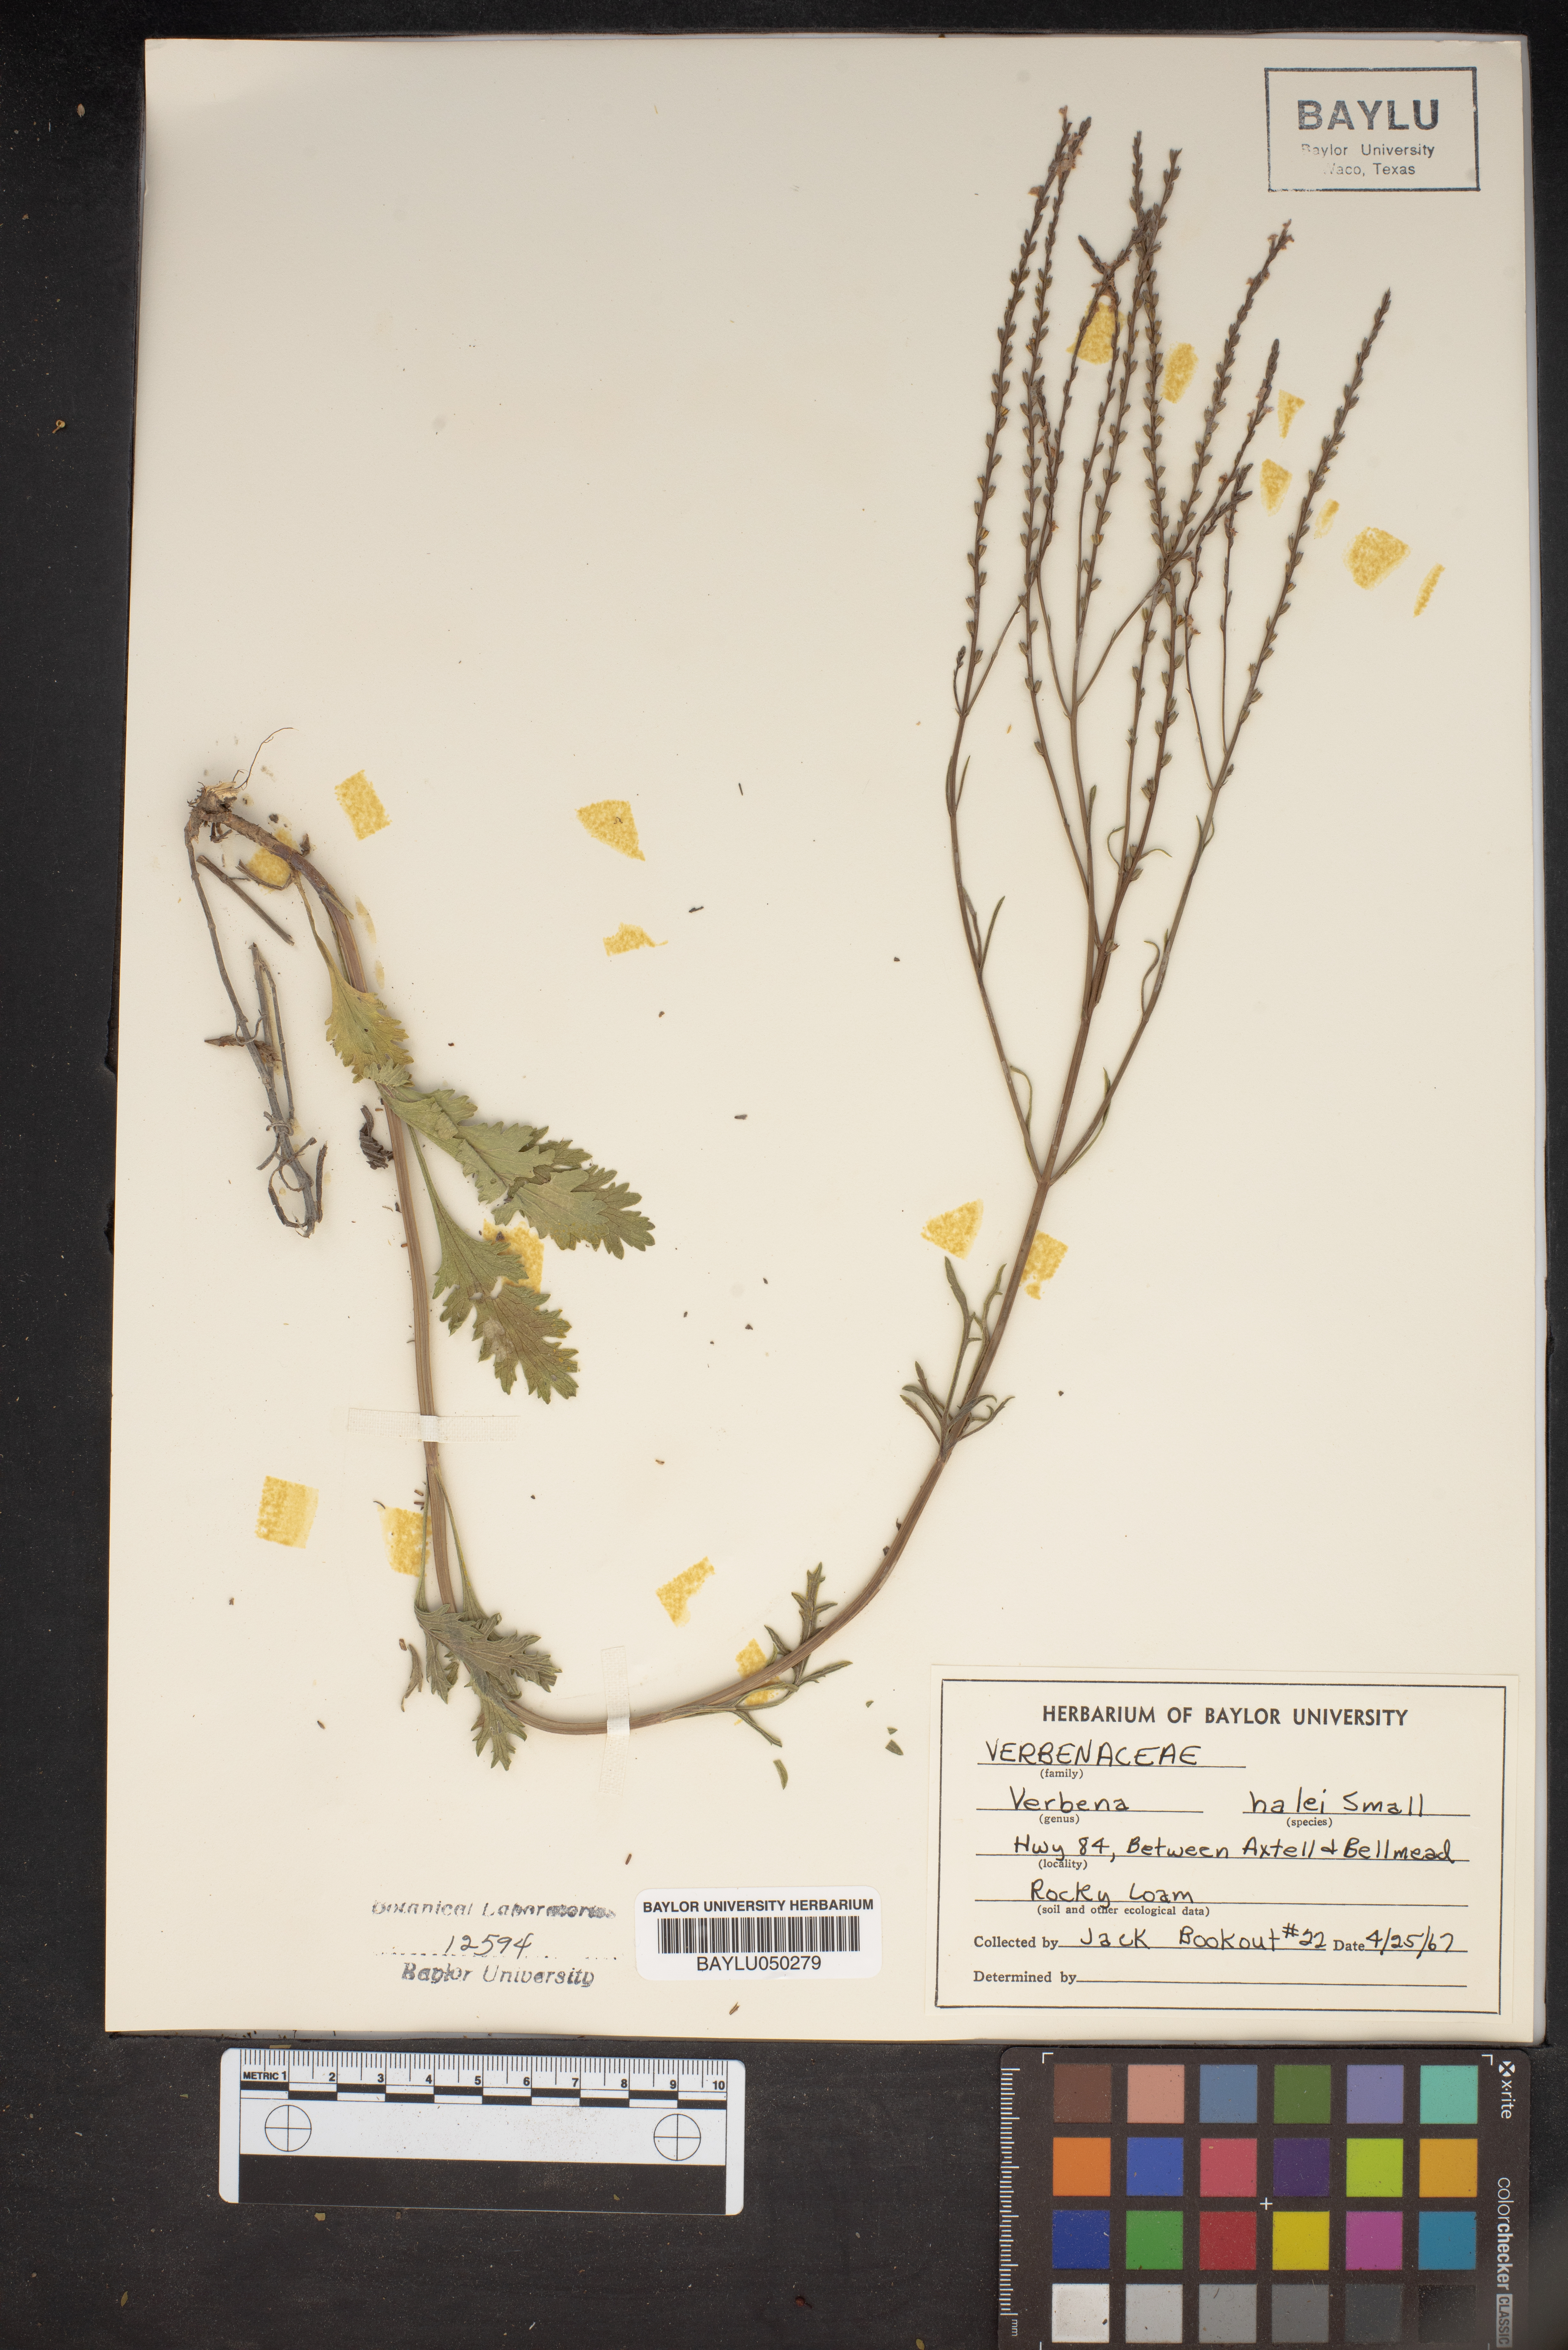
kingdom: Plantae
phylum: Tracheophyta
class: Magnoliopsida
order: Lamiales
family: Verbenaceae
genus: Verbena
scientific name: Verbena halei
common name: Texas vervain
